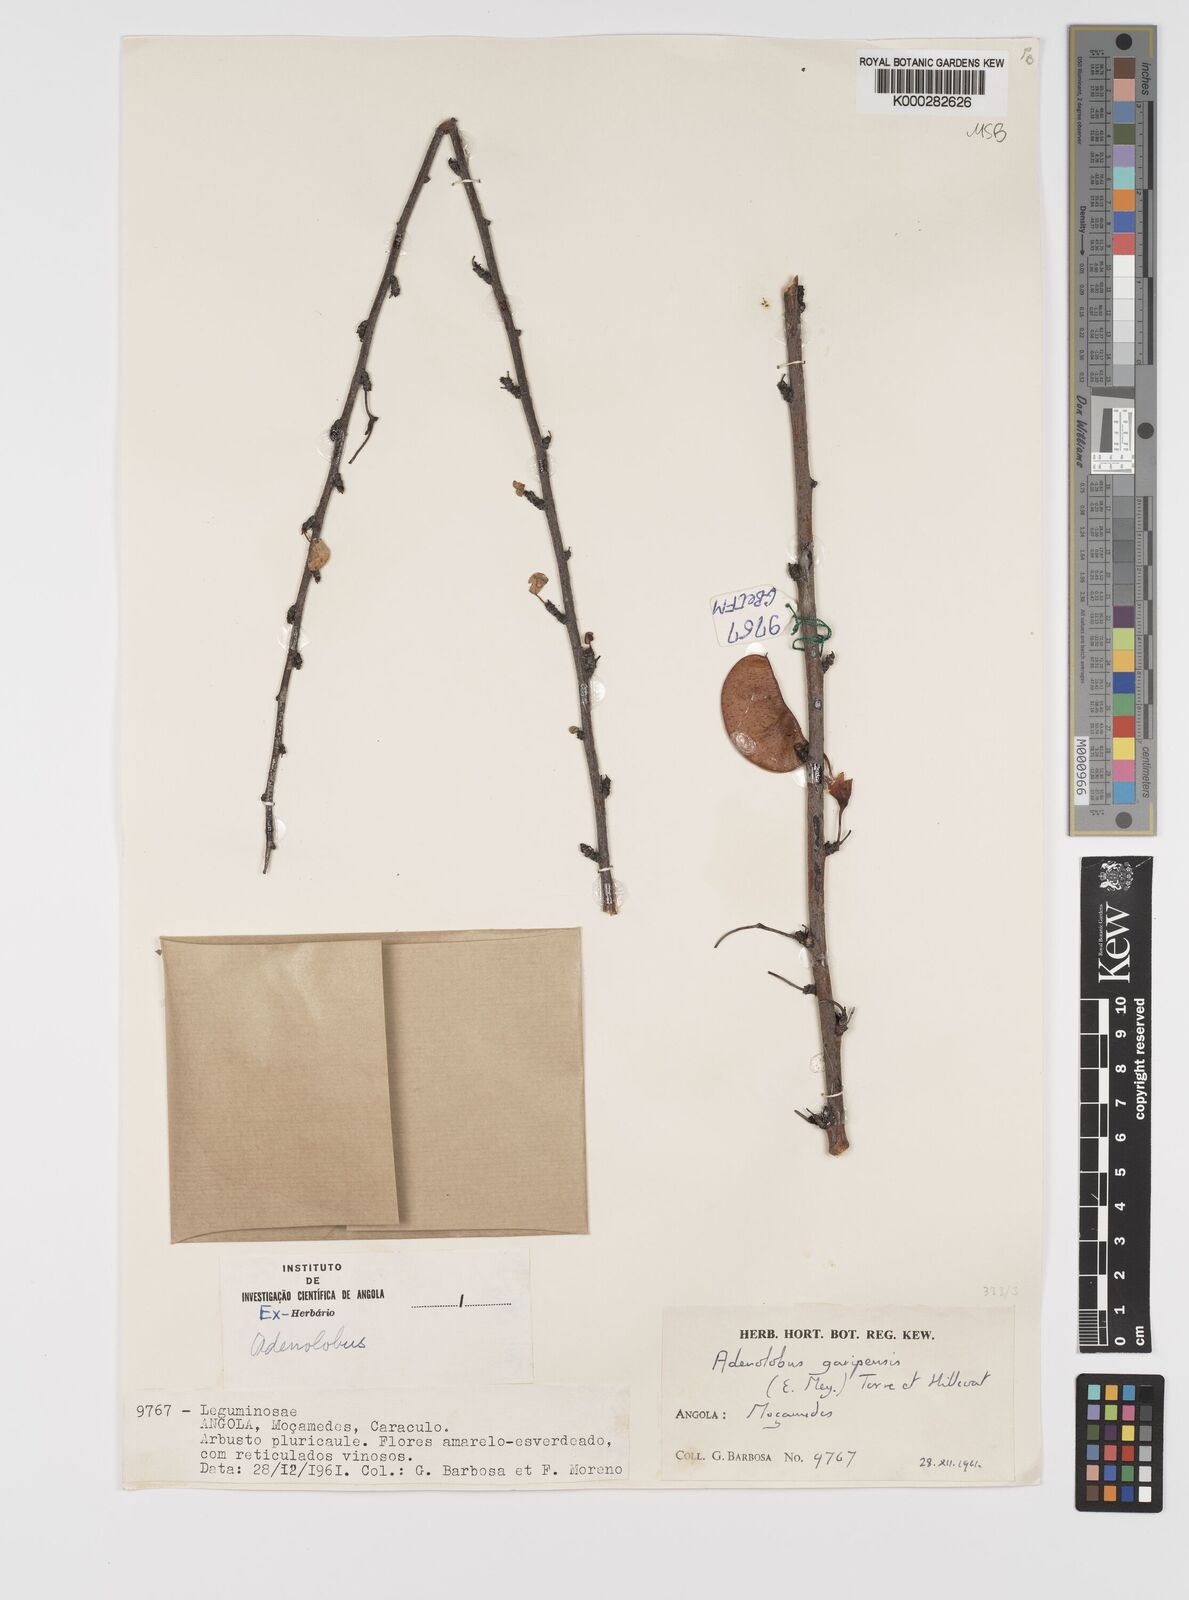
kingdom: Plantae
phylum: Tracheophyta
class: Magnoliopsida
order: Fabales
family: Fabaceae
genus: Adenolobus
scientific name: Adenolobus garipensis
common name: Butterfly-leaf
